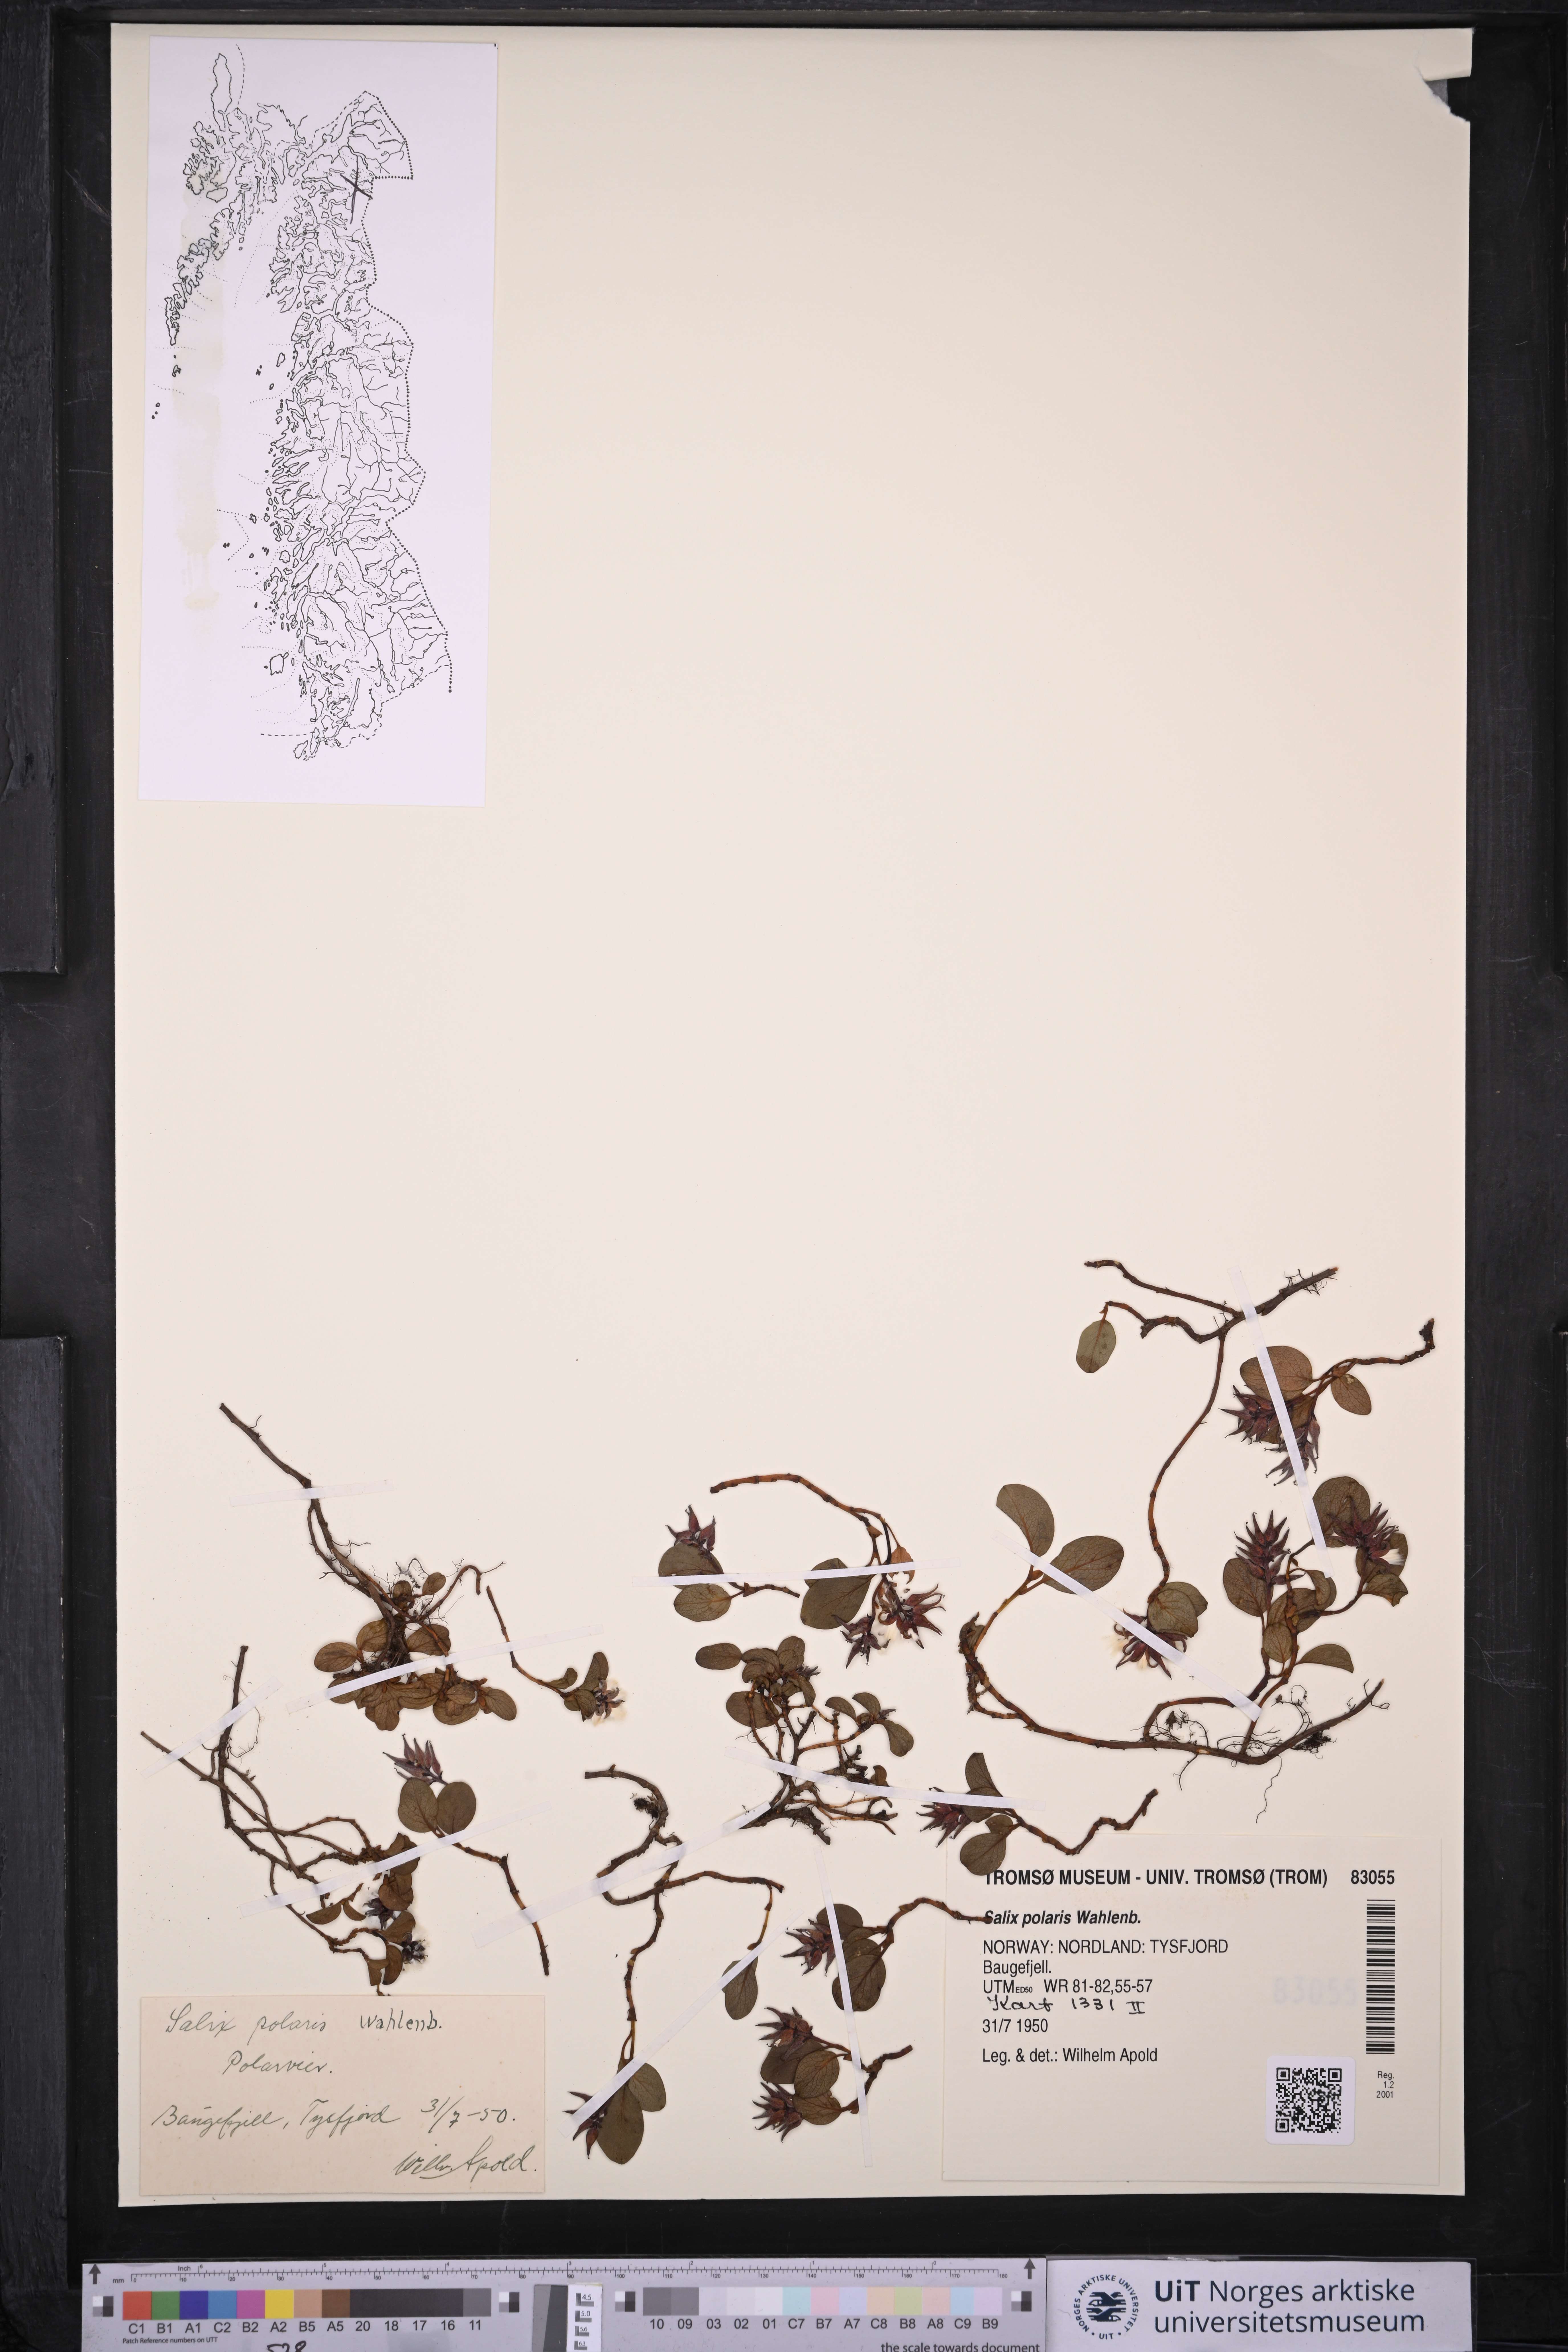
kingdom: Plantae
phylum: Tracheophyta
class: Magnoliopsida
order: Malpighiales
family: Salicaceae
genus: Salix
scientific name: Salix polaris
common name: Polar willow
